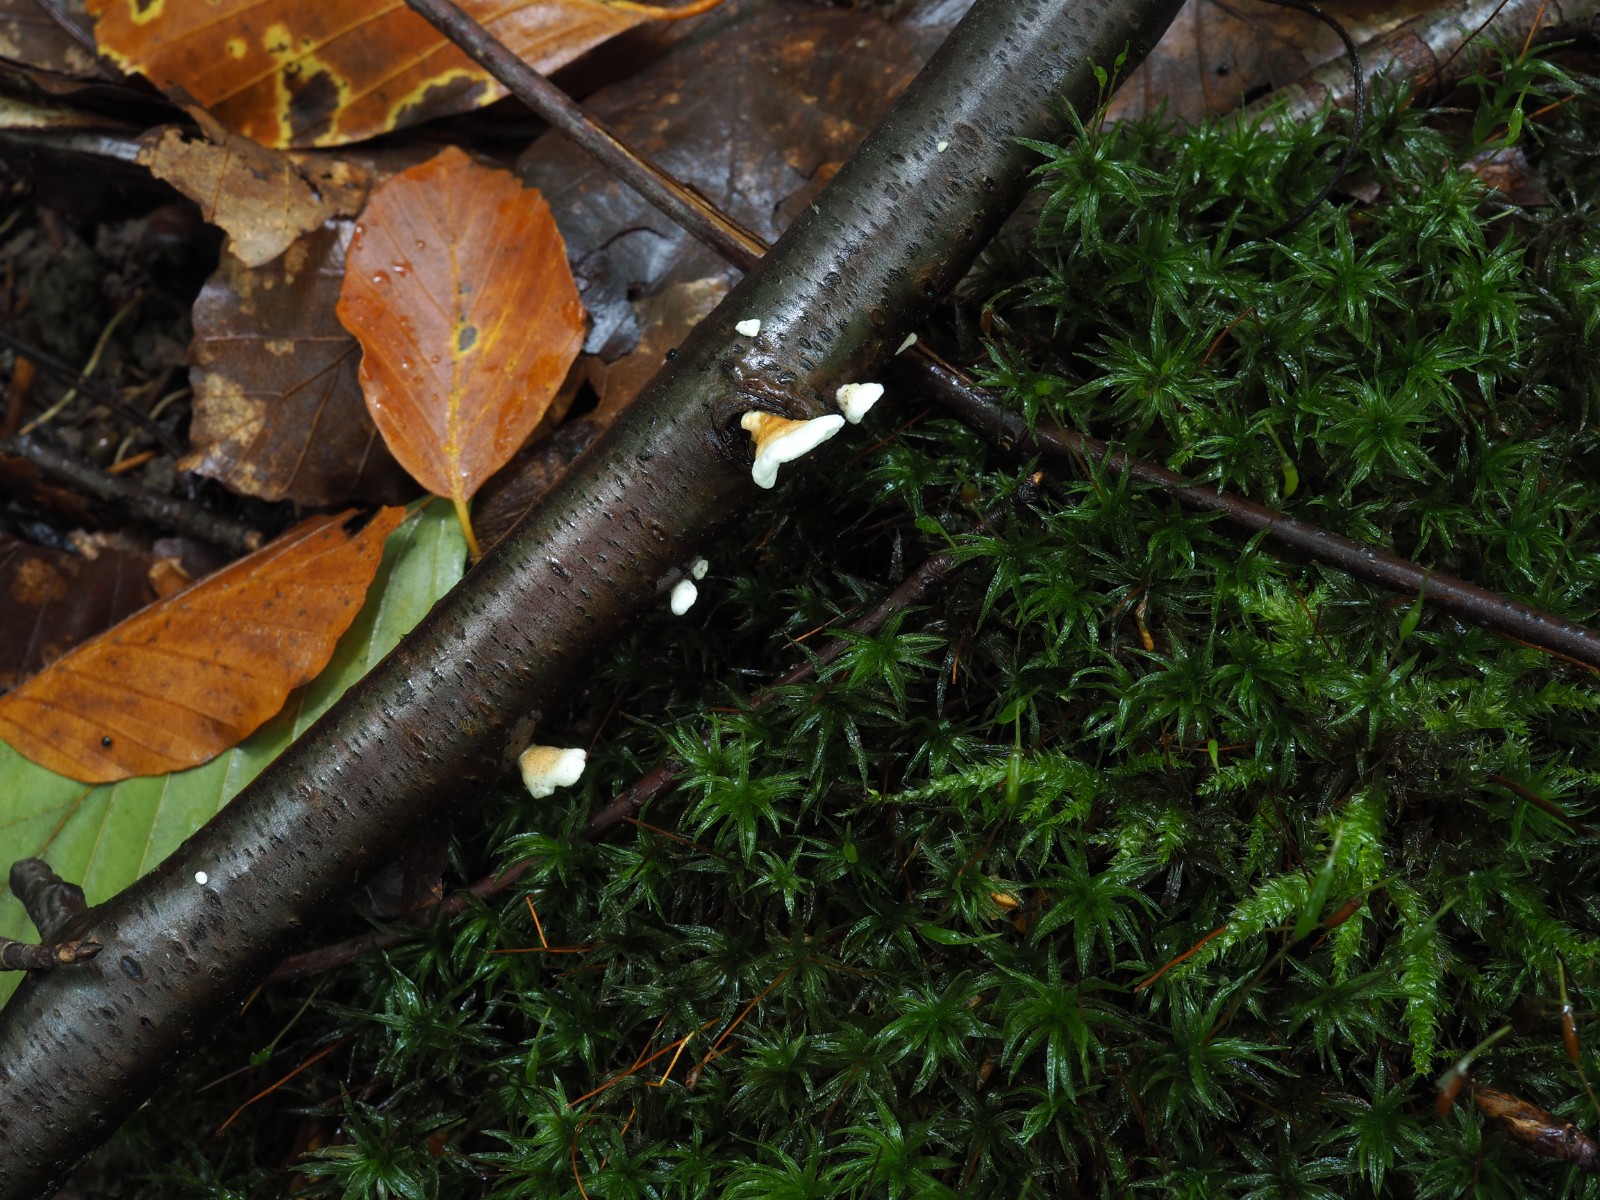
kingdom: Fungi
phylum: Basidiomycota
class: Agaricomycetes
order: Amylocorticiales
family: Amylocorticiaceae
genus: Plicaturopsis
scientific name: Plicaturopsis crispa
